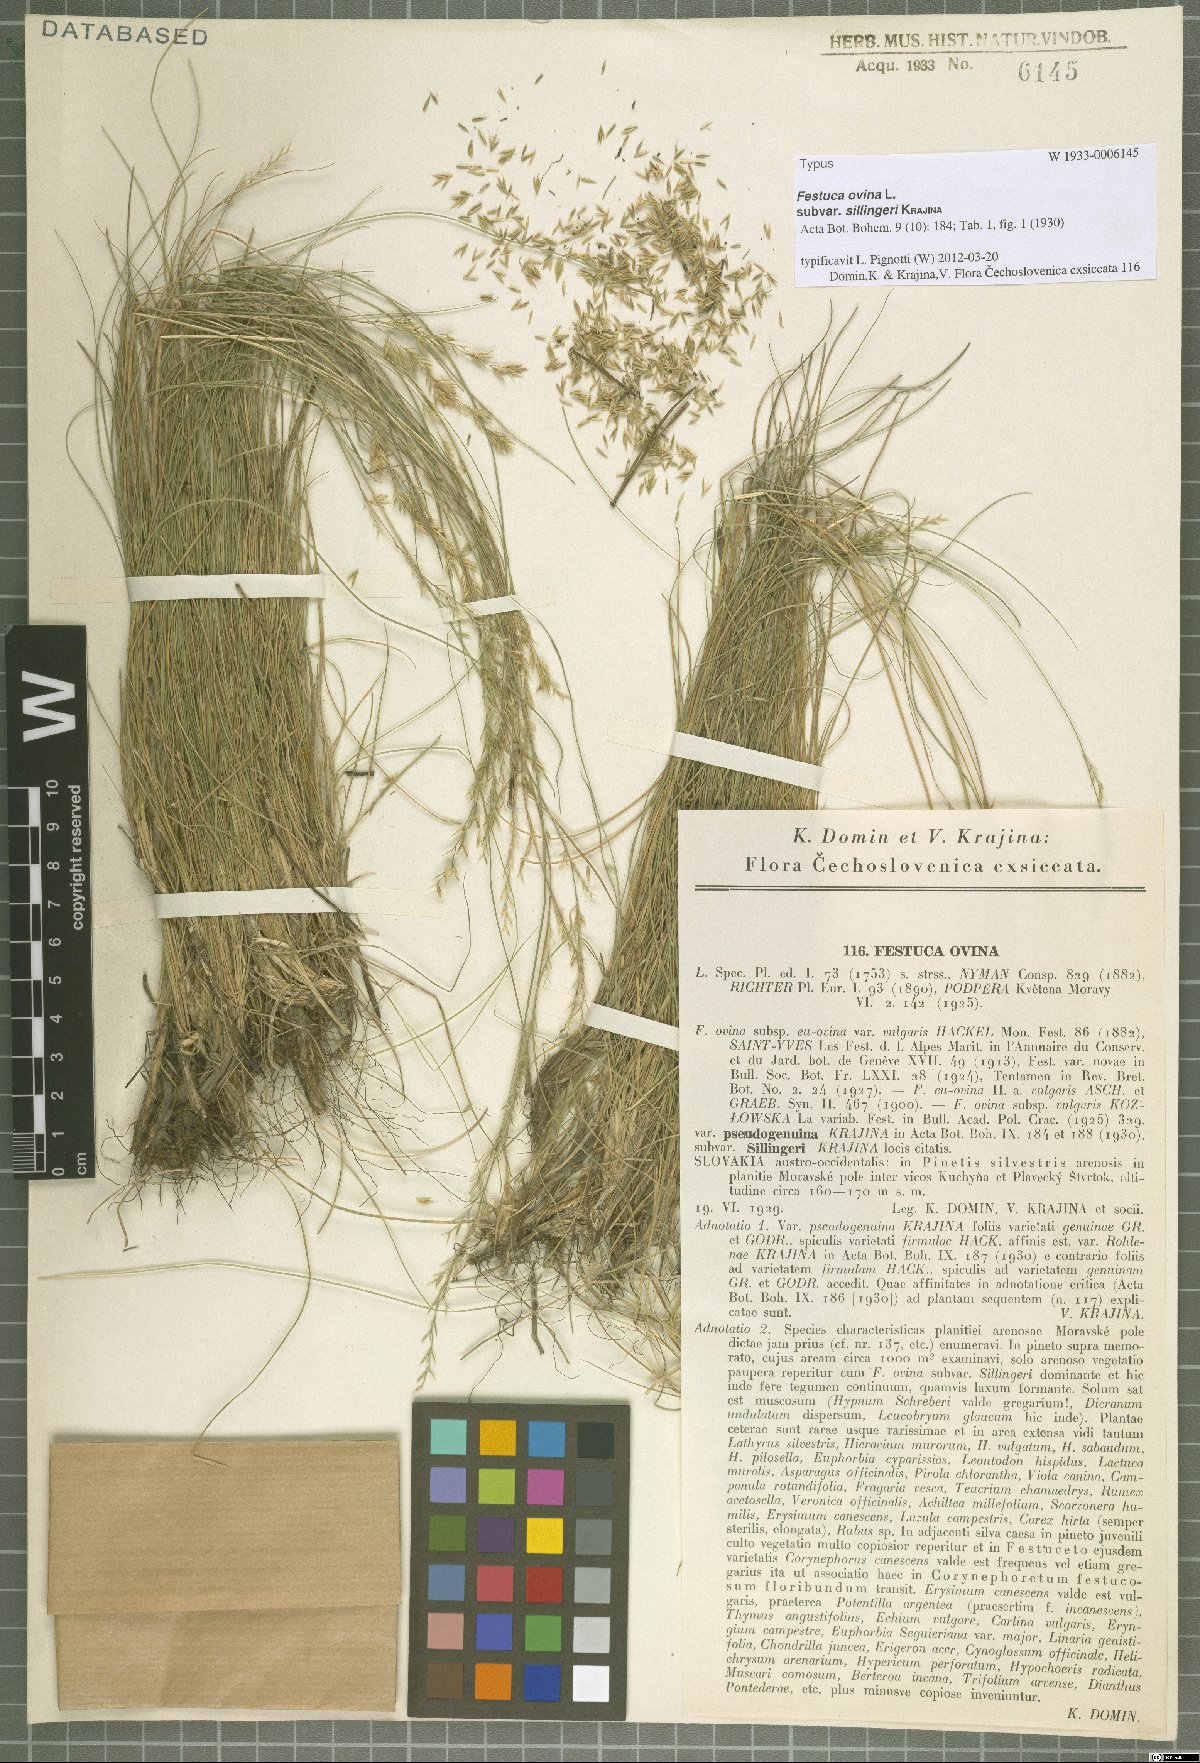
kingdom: Plantae
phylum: Tracheophyta
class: Liliopsida
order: Poales
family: Poaceae
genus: Festuca
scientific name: Festuca ovina
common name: Sheep fescue
